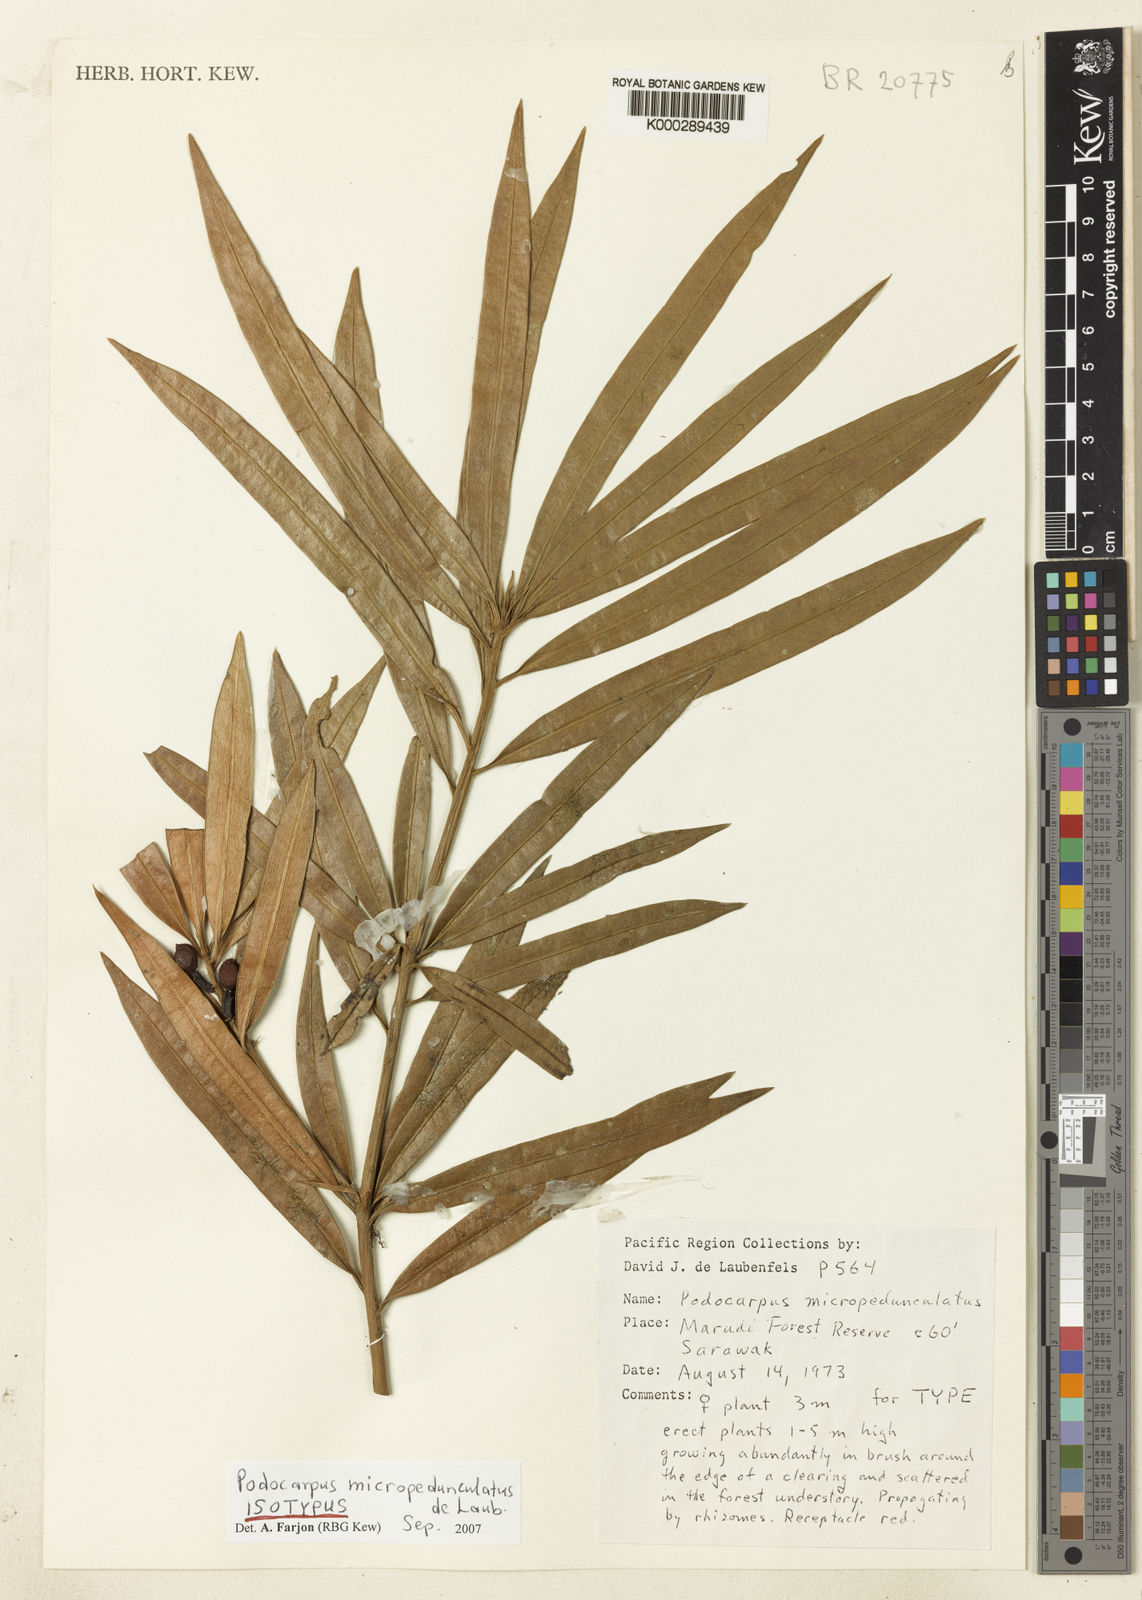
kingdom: Plantae
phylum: Tracheophyta
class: Pinopsida
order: Pinales
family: Podocarpaceae
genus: Podocarpus
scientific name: Podocarpus micropedunculatus
